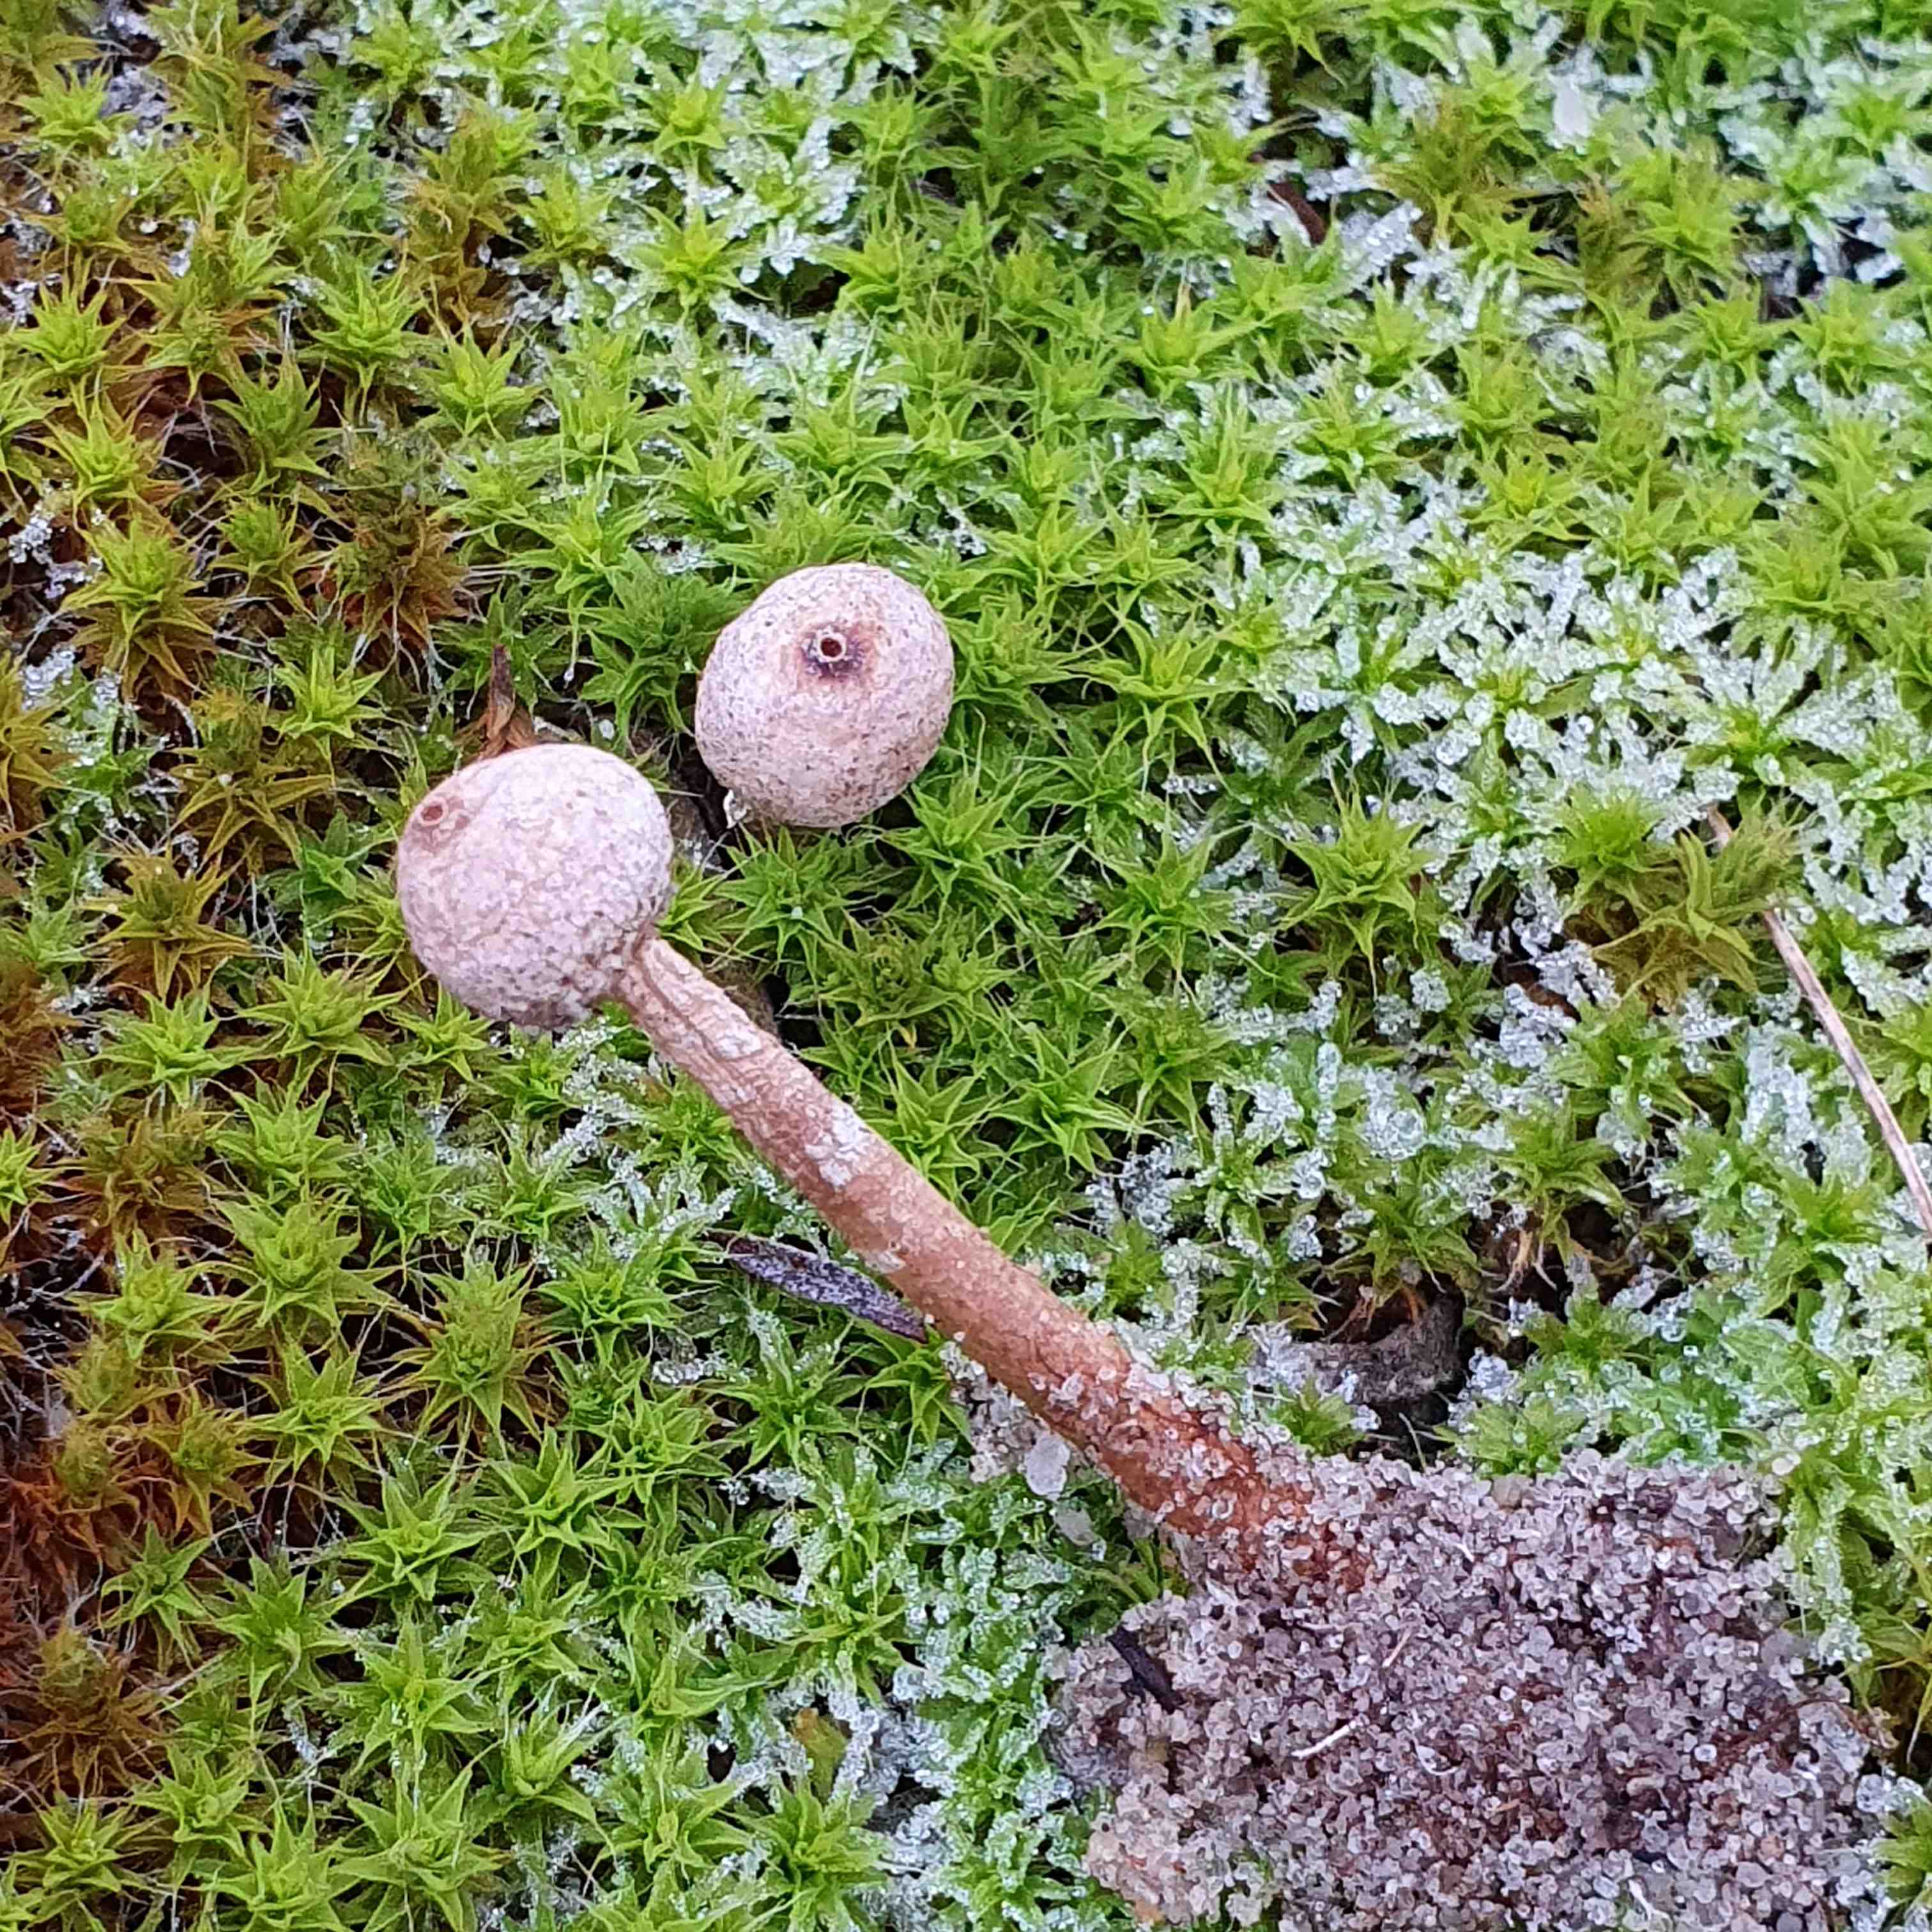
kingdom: Fungi
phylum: Basidiomycota
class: Agaricomycetes
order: Agaricales
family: Agaricaceae
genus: Tulostoma
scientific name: Tulostoma brumale
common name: vinter-stilkbovist
